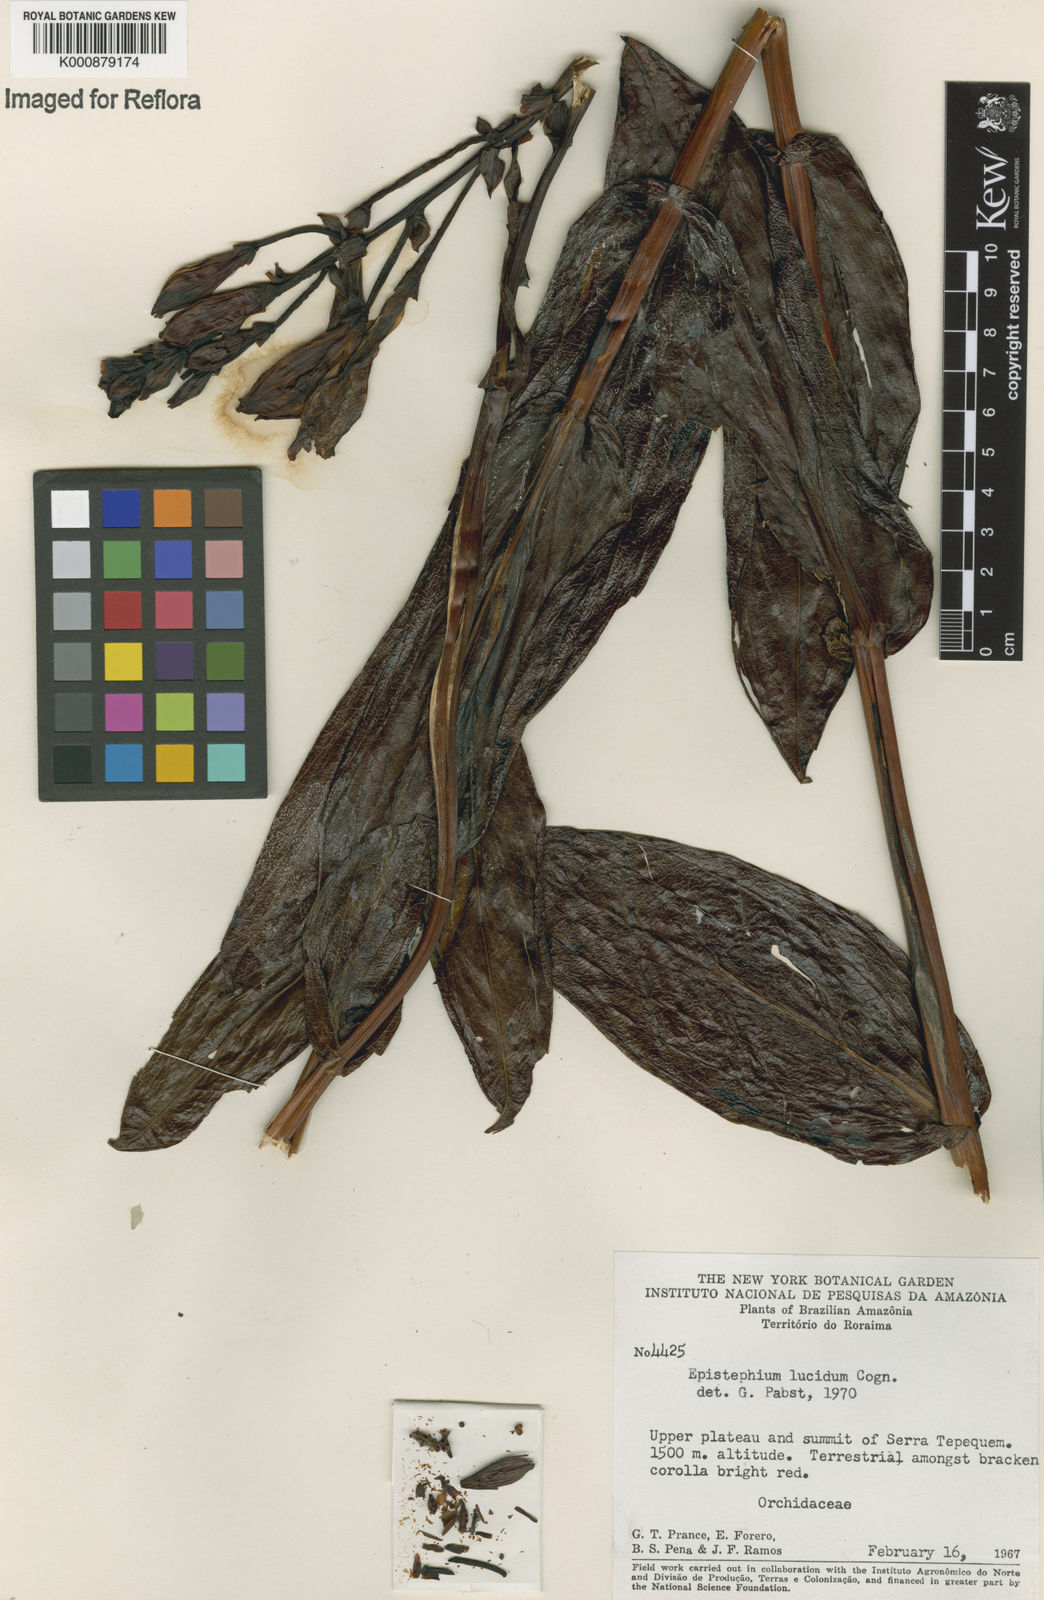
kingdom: Plantae
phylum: Tracheophyta
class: Liliopsida
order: Asparagales
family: Orchidaceae
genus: Epistephium
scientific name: Epistephium williamsii
